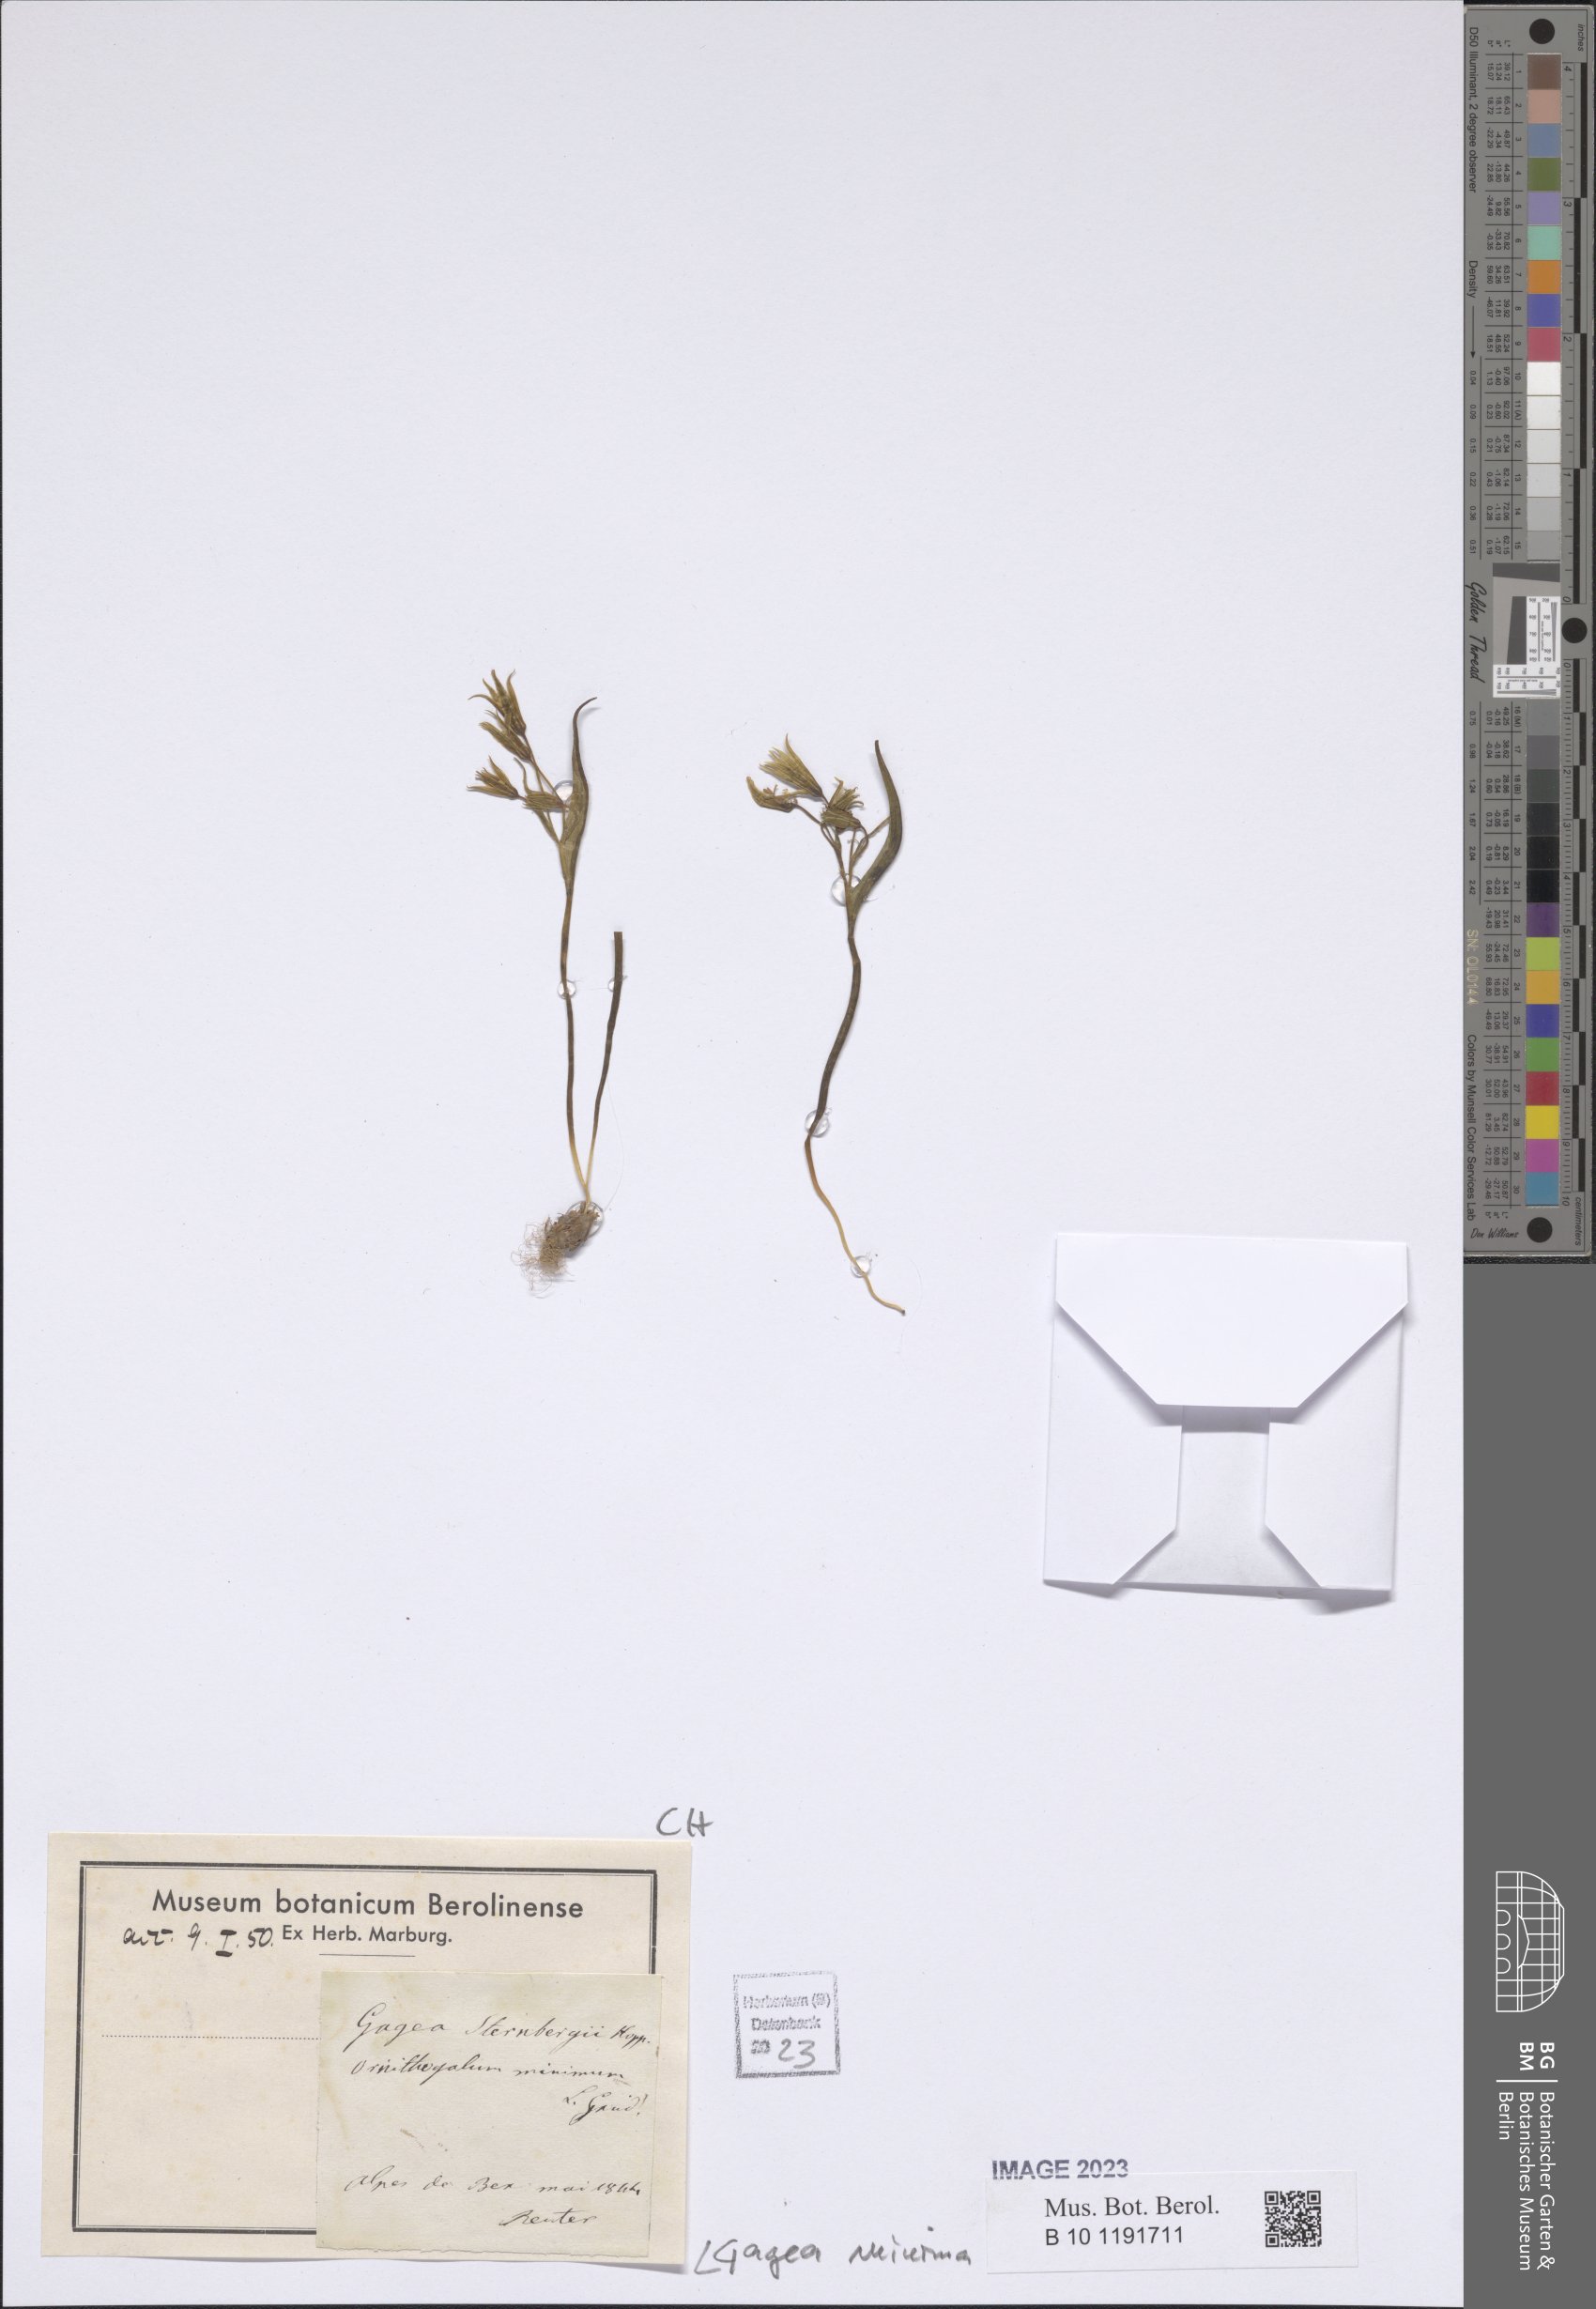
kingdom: Plantae
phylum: Tracheophyta
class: Liliopsida
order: Liliales
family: Liliaceae
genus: Gagea
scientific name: Gagea minima
